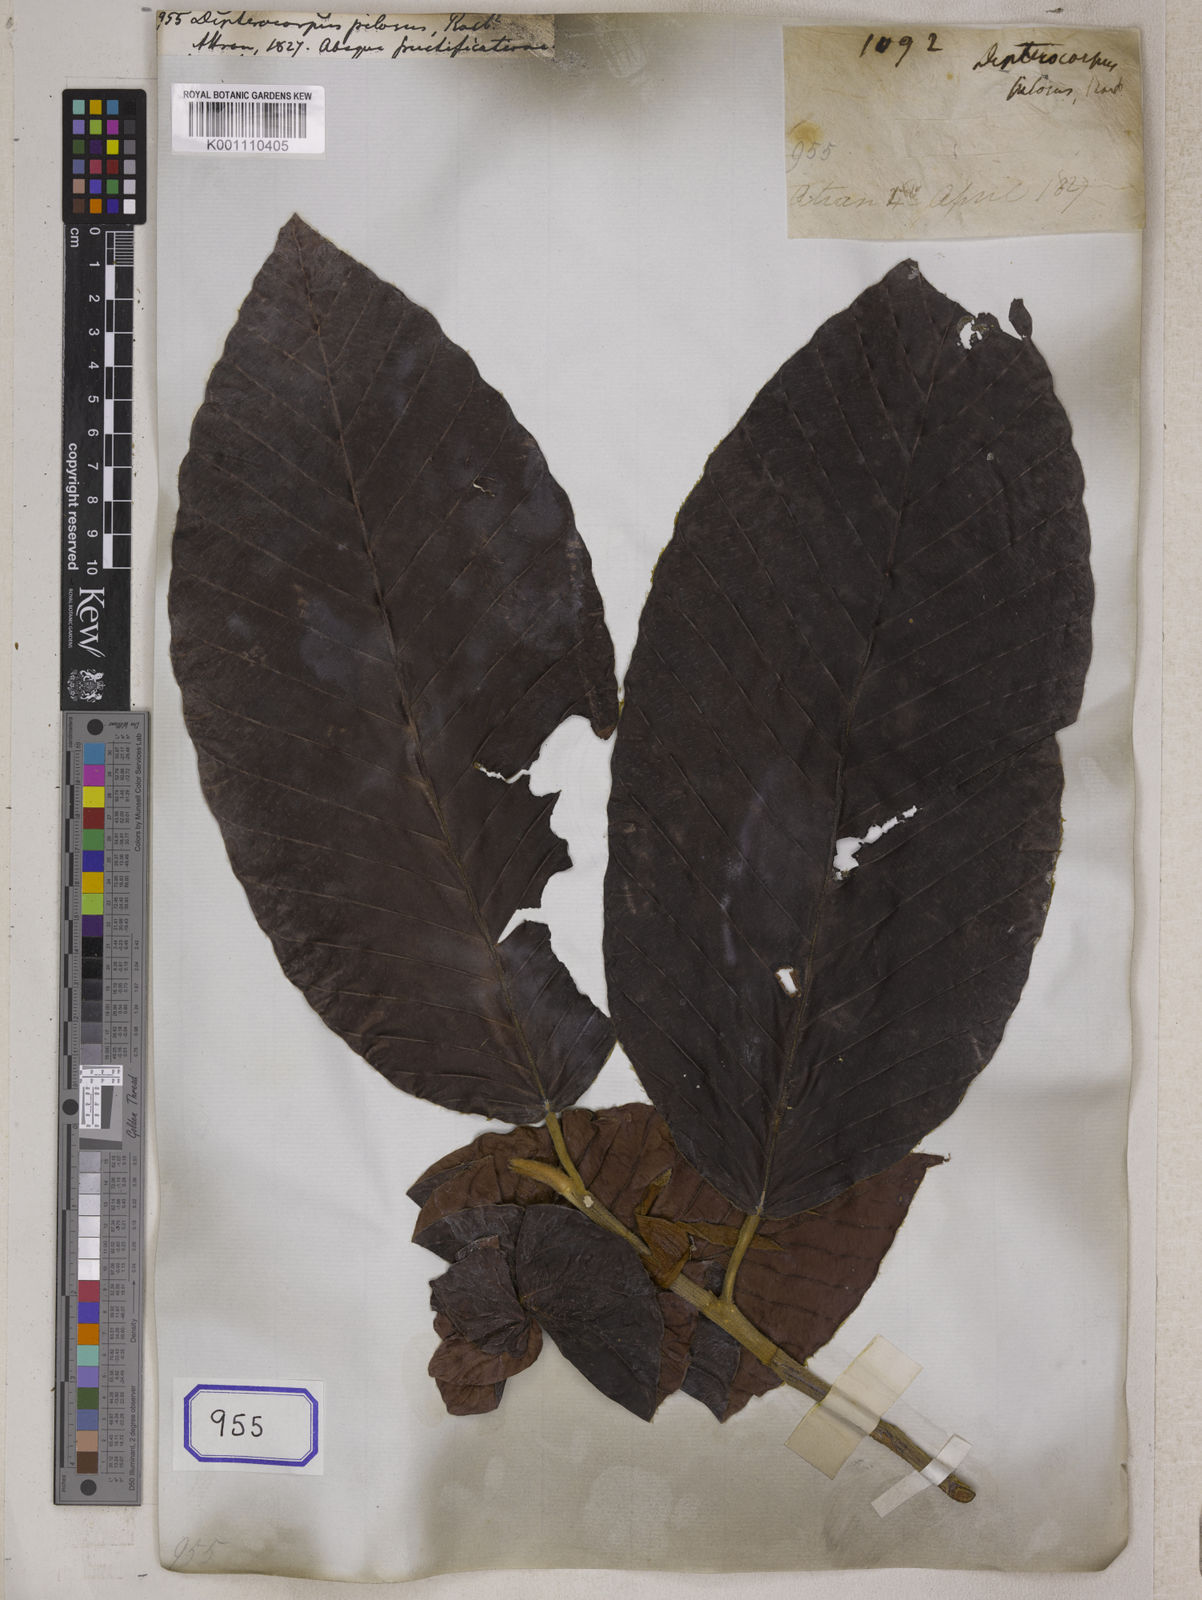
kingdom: Plantae
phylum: Tracheophyta
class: Magnoliopsida
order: Malvales
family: Dipterocarpaceae
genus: Dipterocarpus
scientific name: Dipterocarpus gracilis
